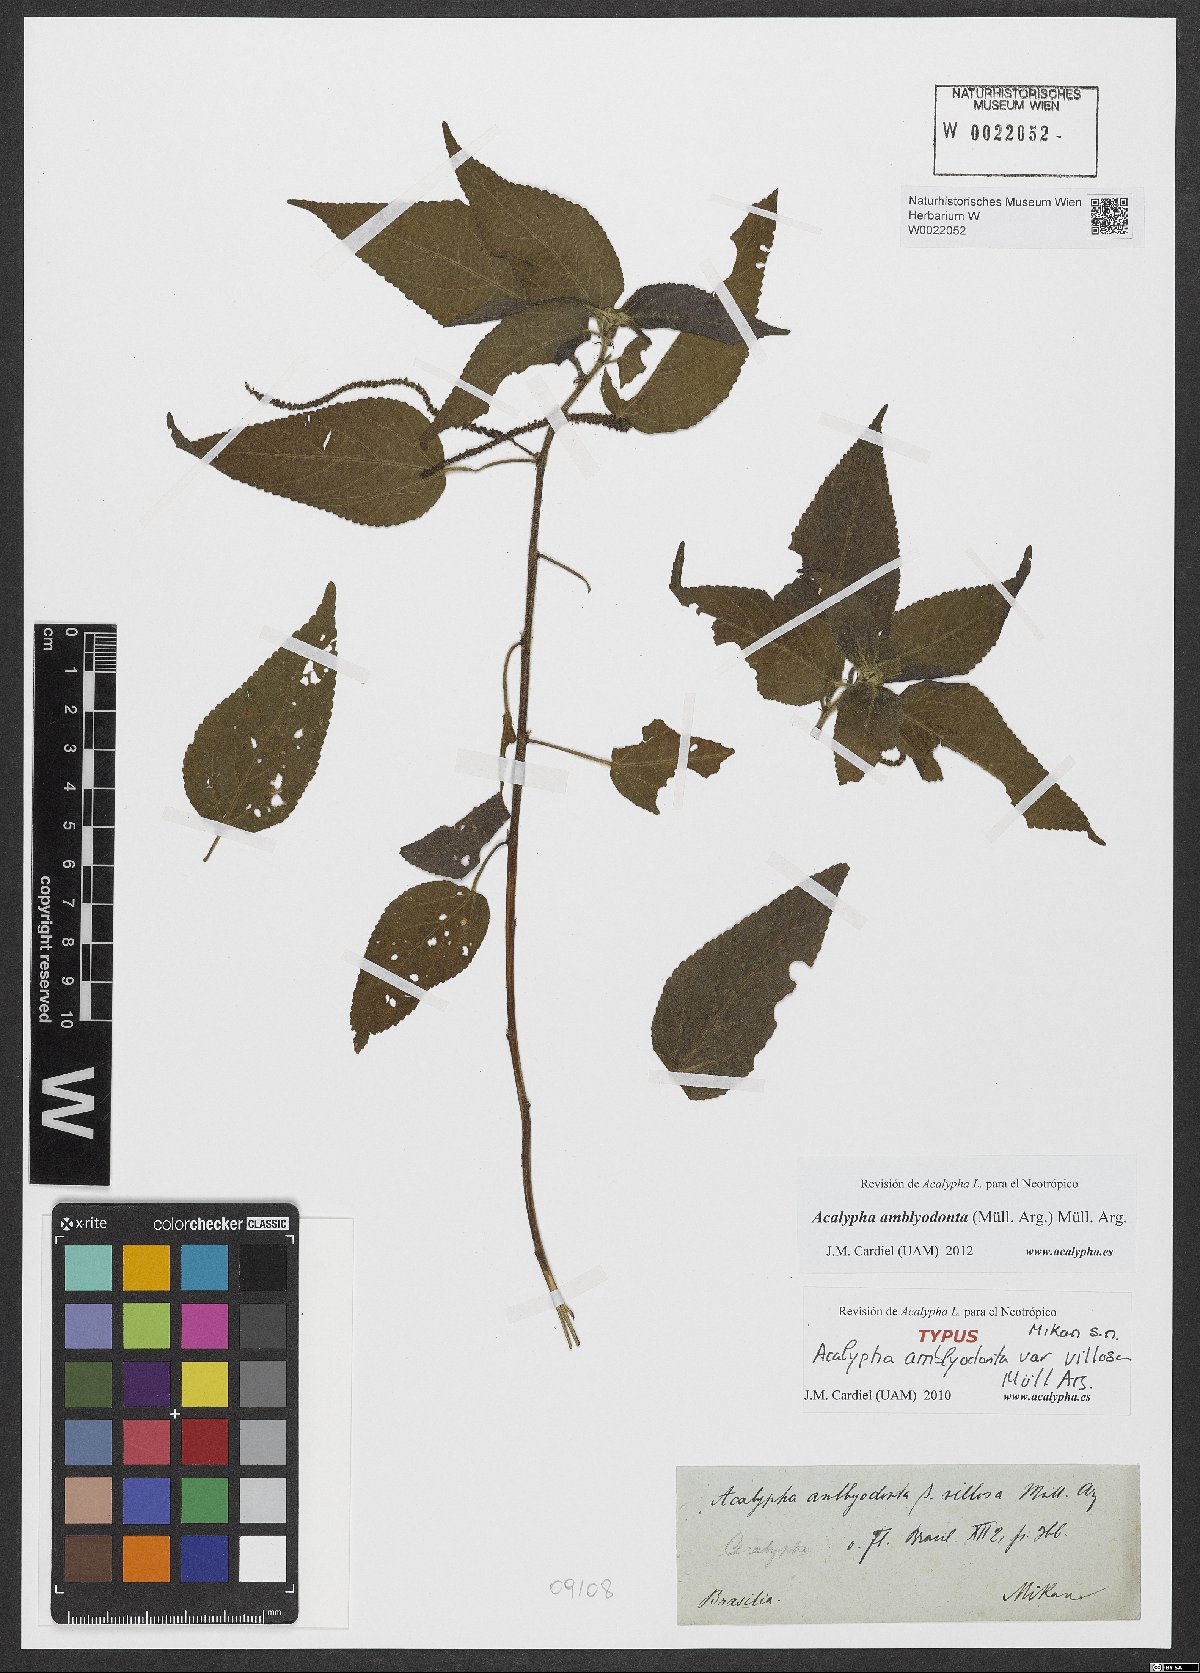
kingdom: Plantae
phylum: Tracheophyta
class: Magnoliopsida
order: Malpighiales
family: Euphorbiaceae
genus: Acalypha
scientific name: Acalypha amblyodonta
